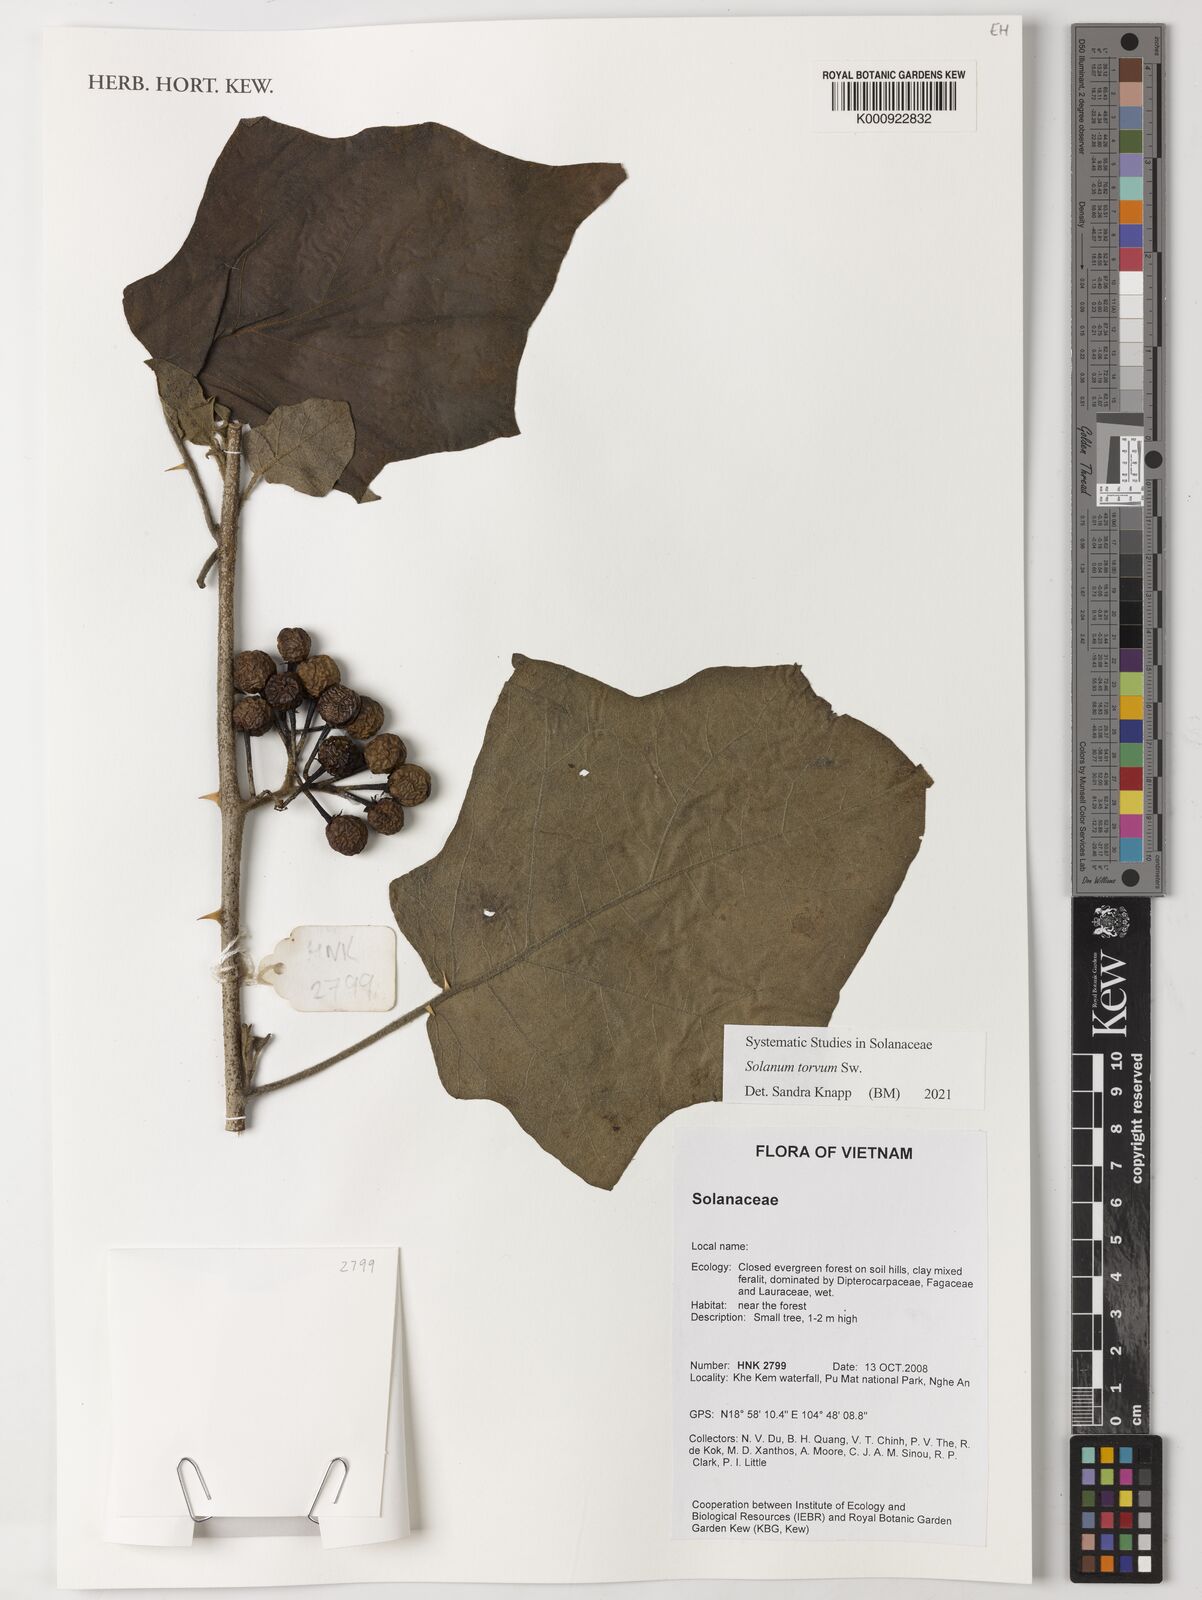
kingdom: Plantae
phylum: Tracheophyta
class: Magnoliopsida
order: Solanales
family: Solanaceae
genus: Solanum
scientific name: Solanum torvum
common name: Turkey berry
